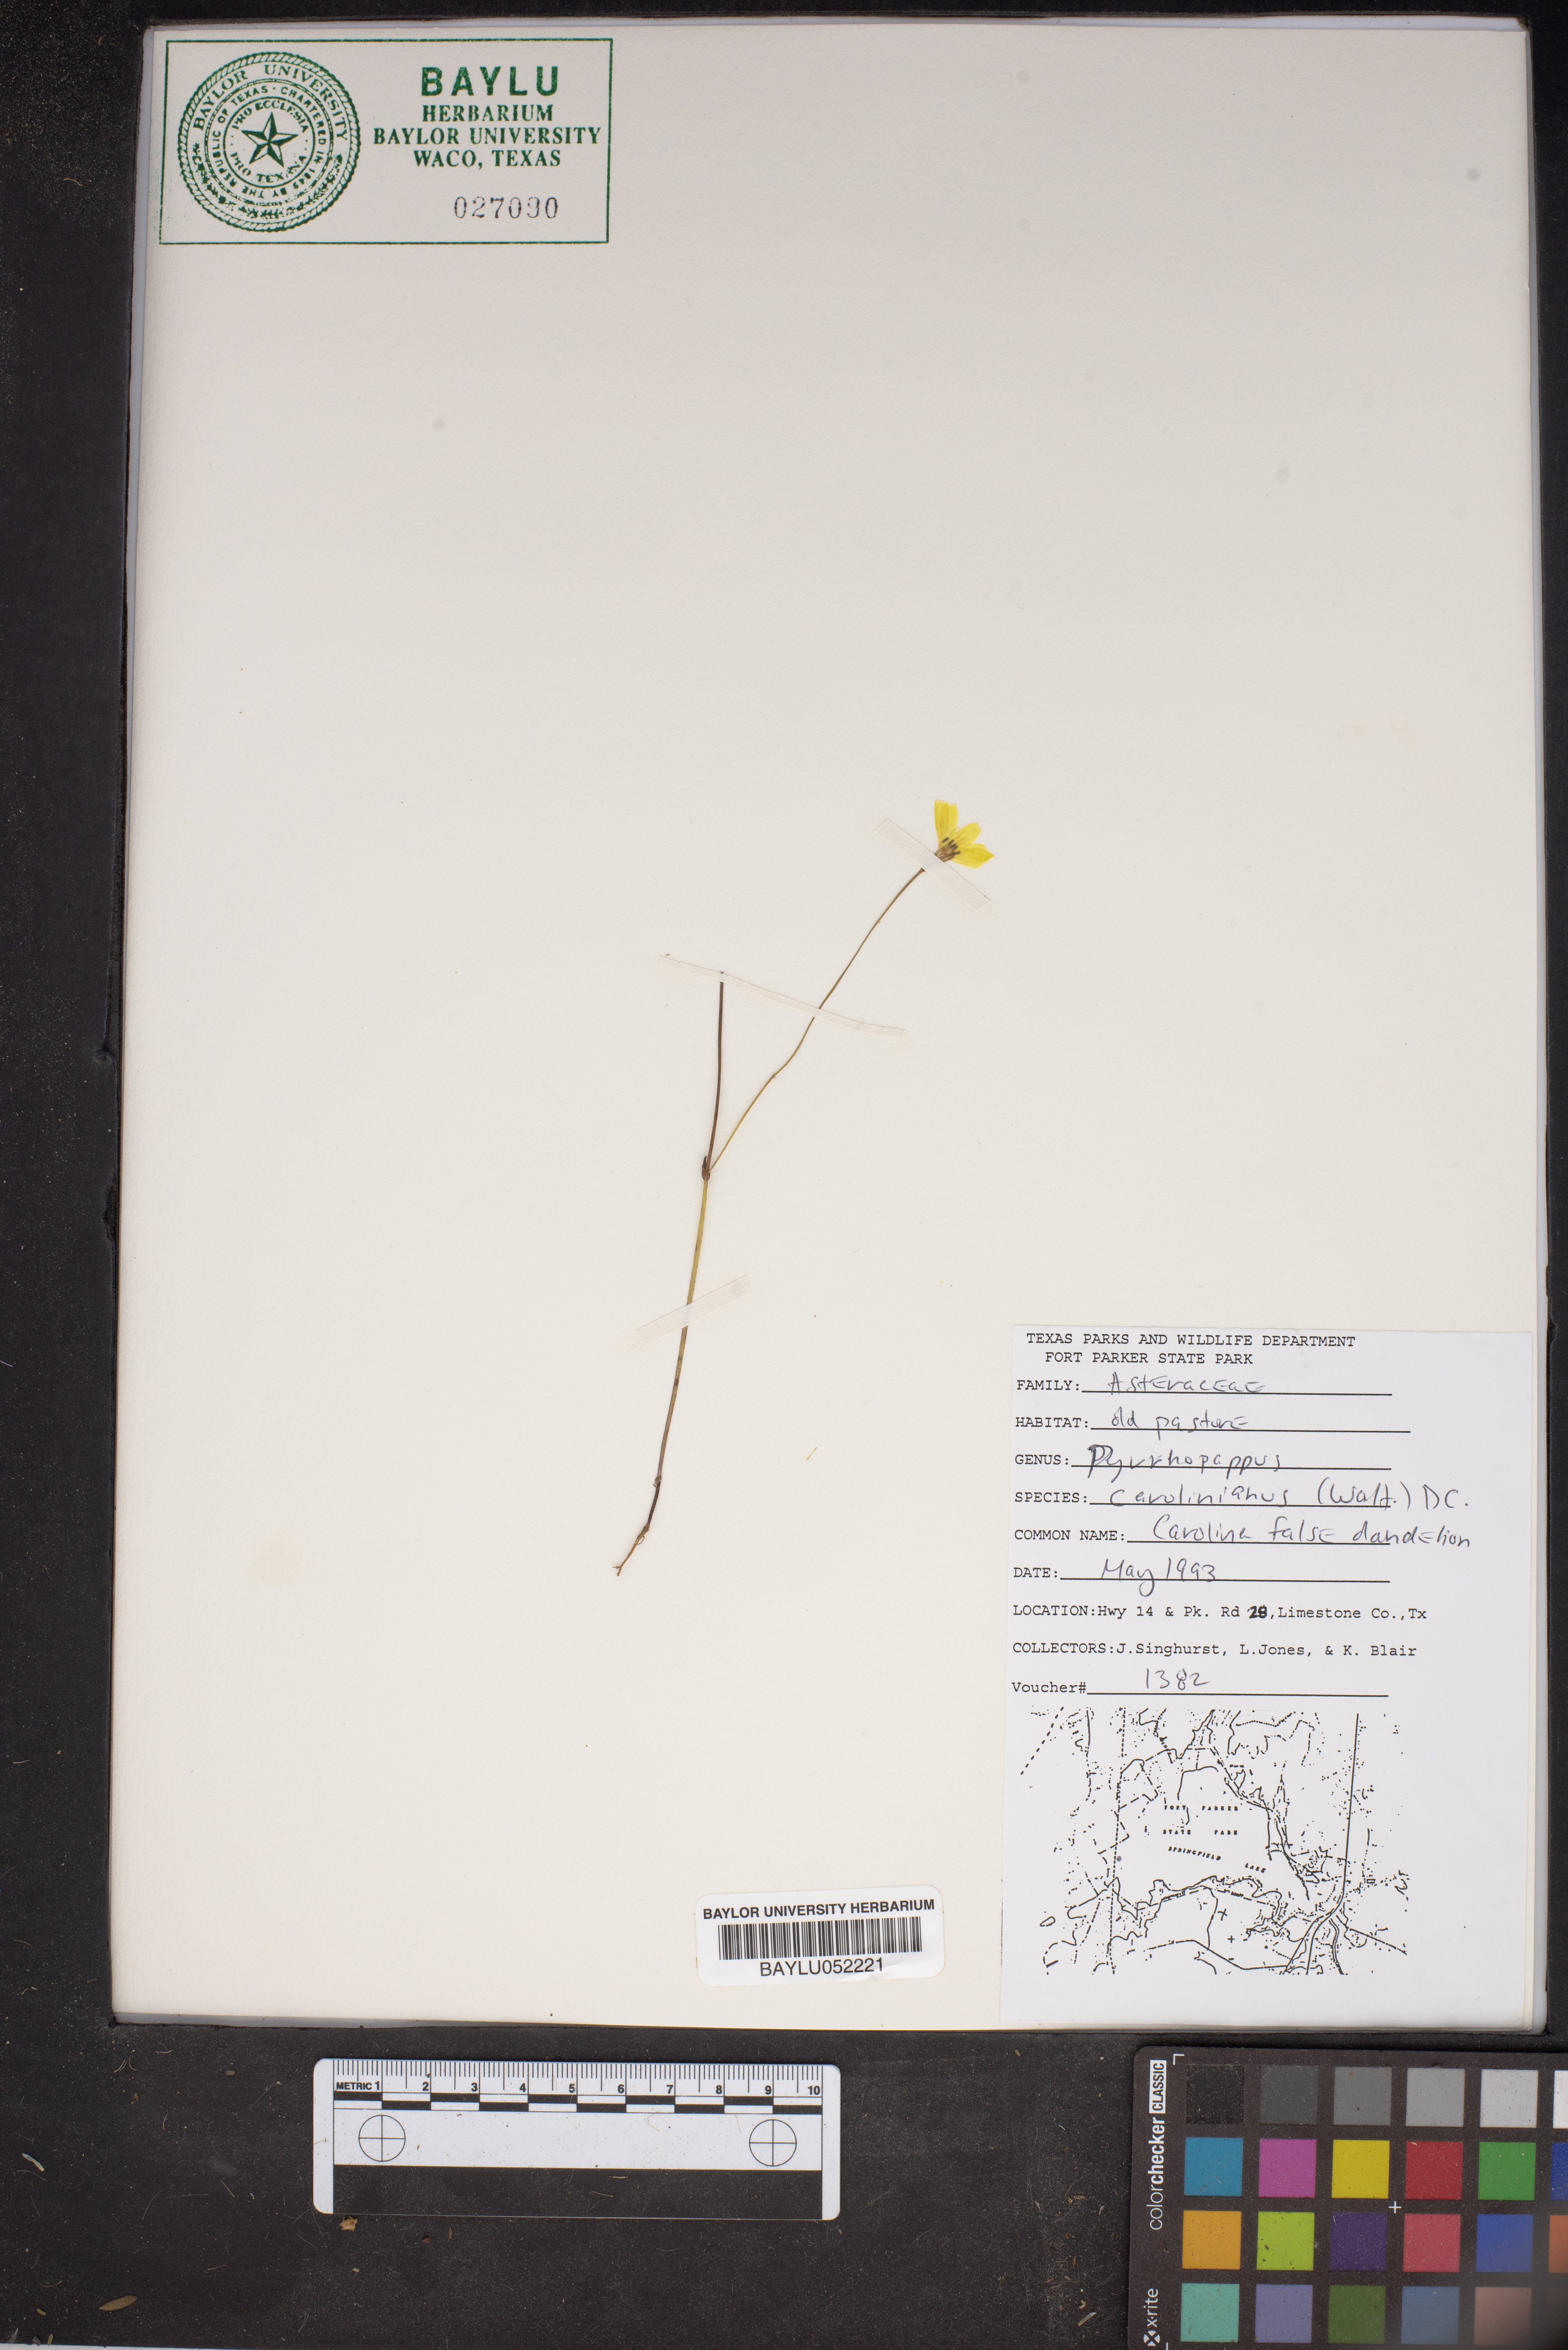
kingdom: Plantae
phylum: Tracheophyta
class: Magnoliopsida
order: Asterales
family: Asteraceae
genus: Pyrrhopappus
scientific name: Pyrrhopappus carolinianus
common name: Carolina desert-chicory
